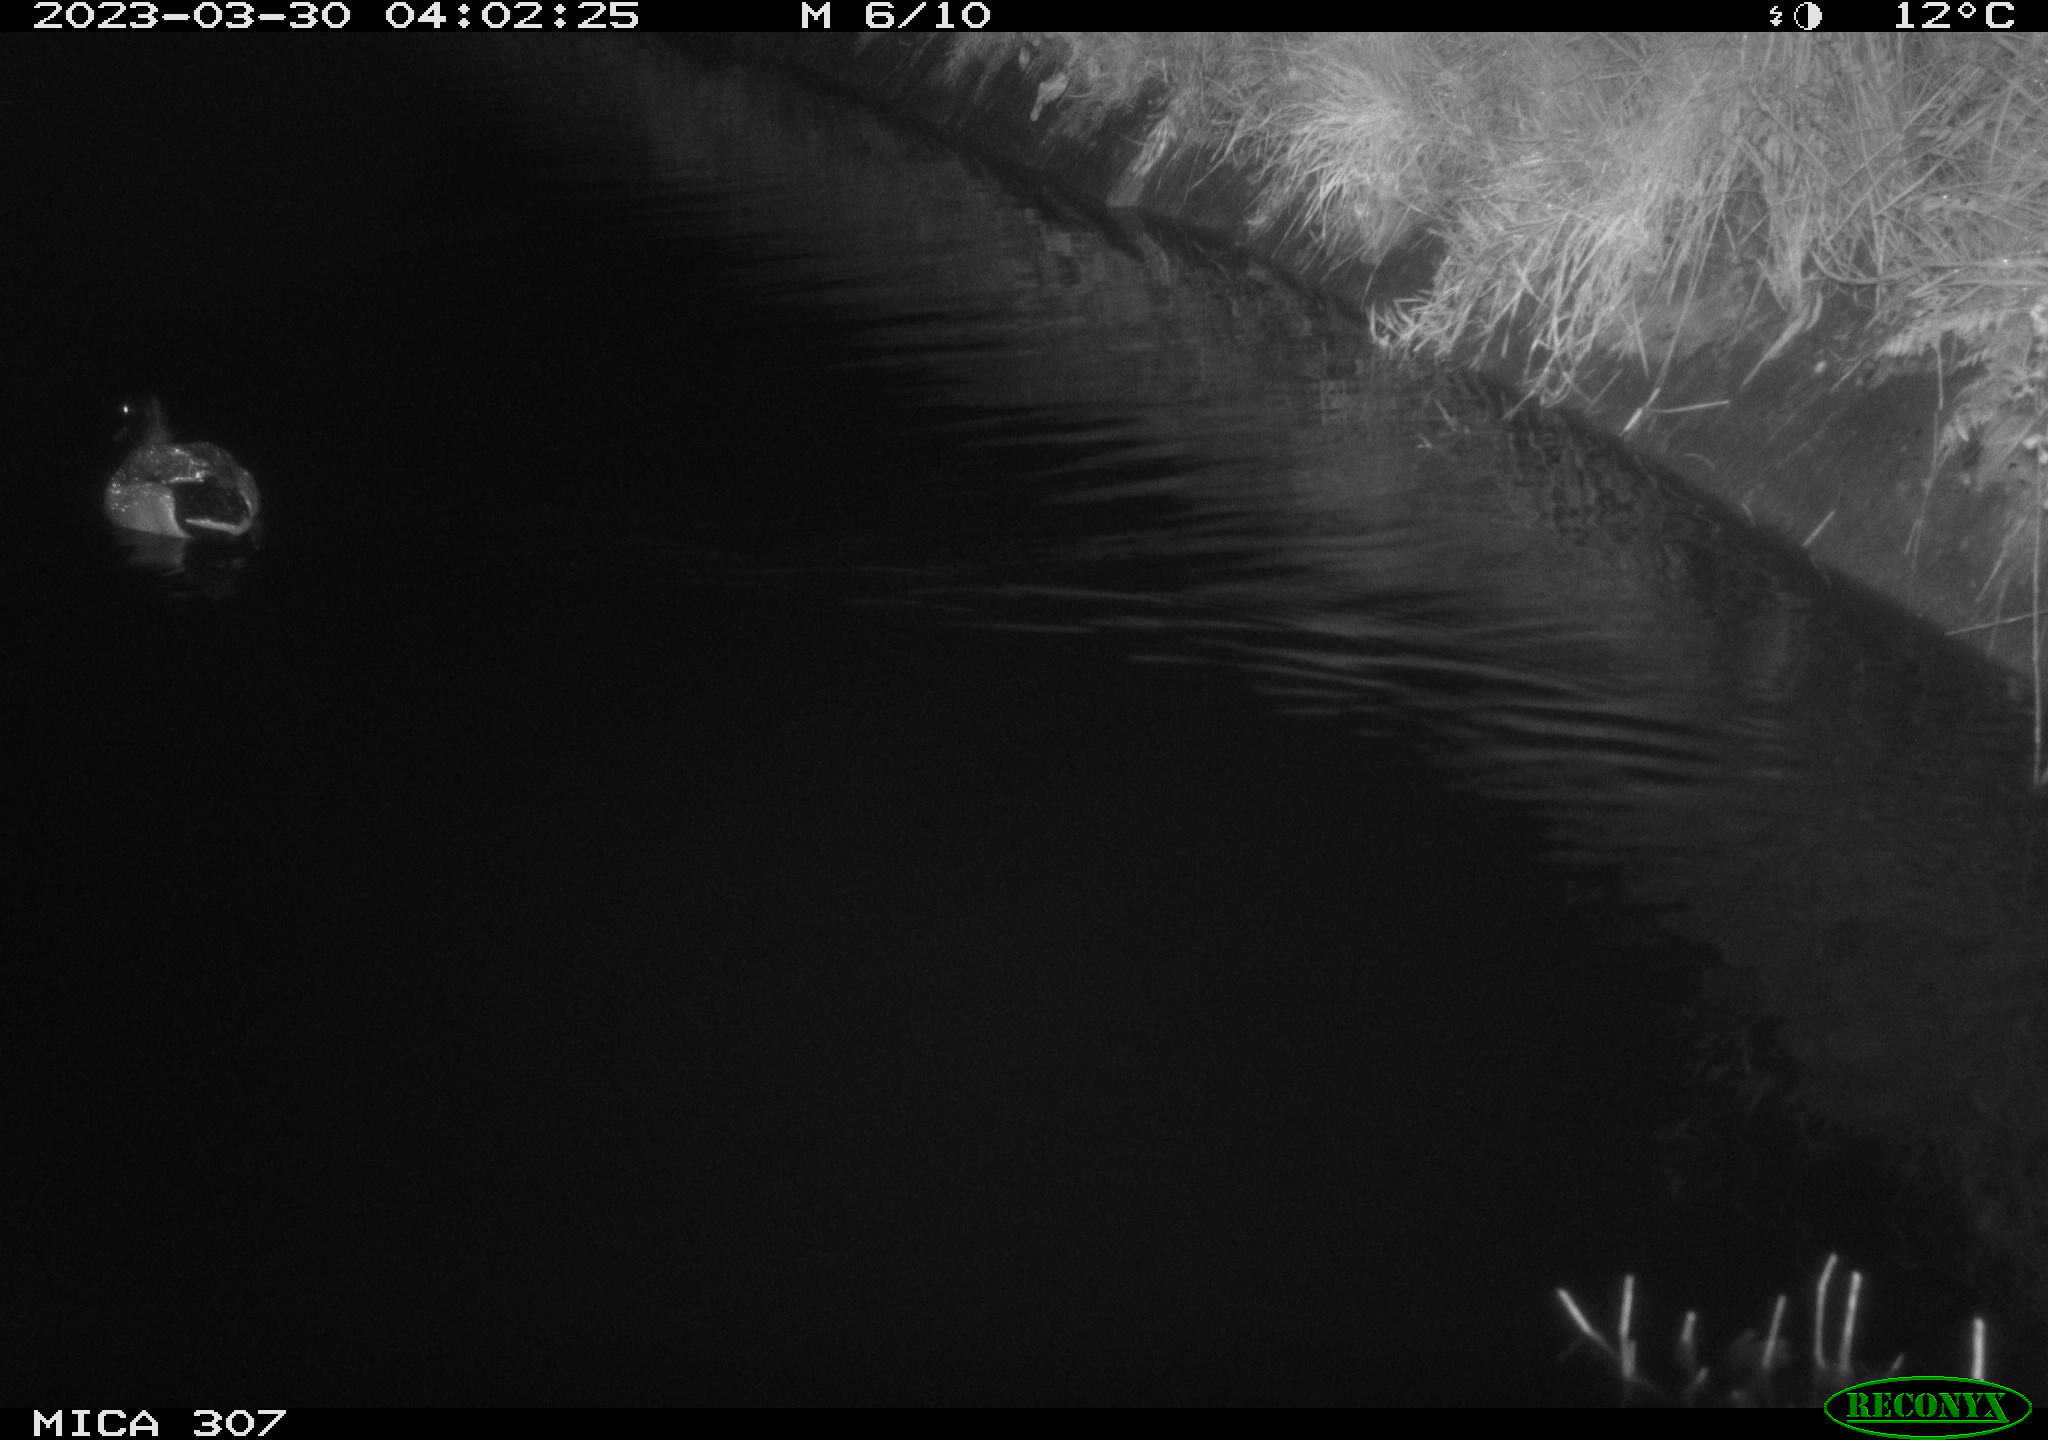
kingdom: Animalia
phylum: Chordata
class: Aves
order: Anseriformes
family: Anatidae
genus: Anas
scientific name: Anas
